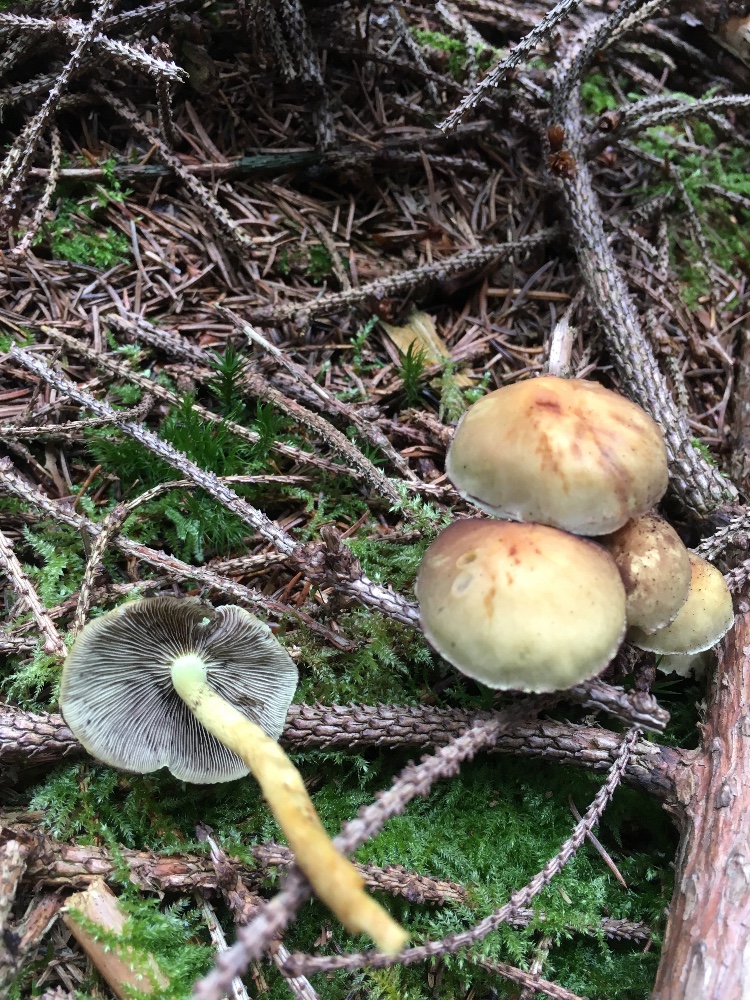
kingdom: Fungi
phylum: Basidiomycota
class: Agaricomycetes
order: Agaricales
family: Strophariaceae
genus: Hypholoma
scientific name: Hypholoma fasciculare
